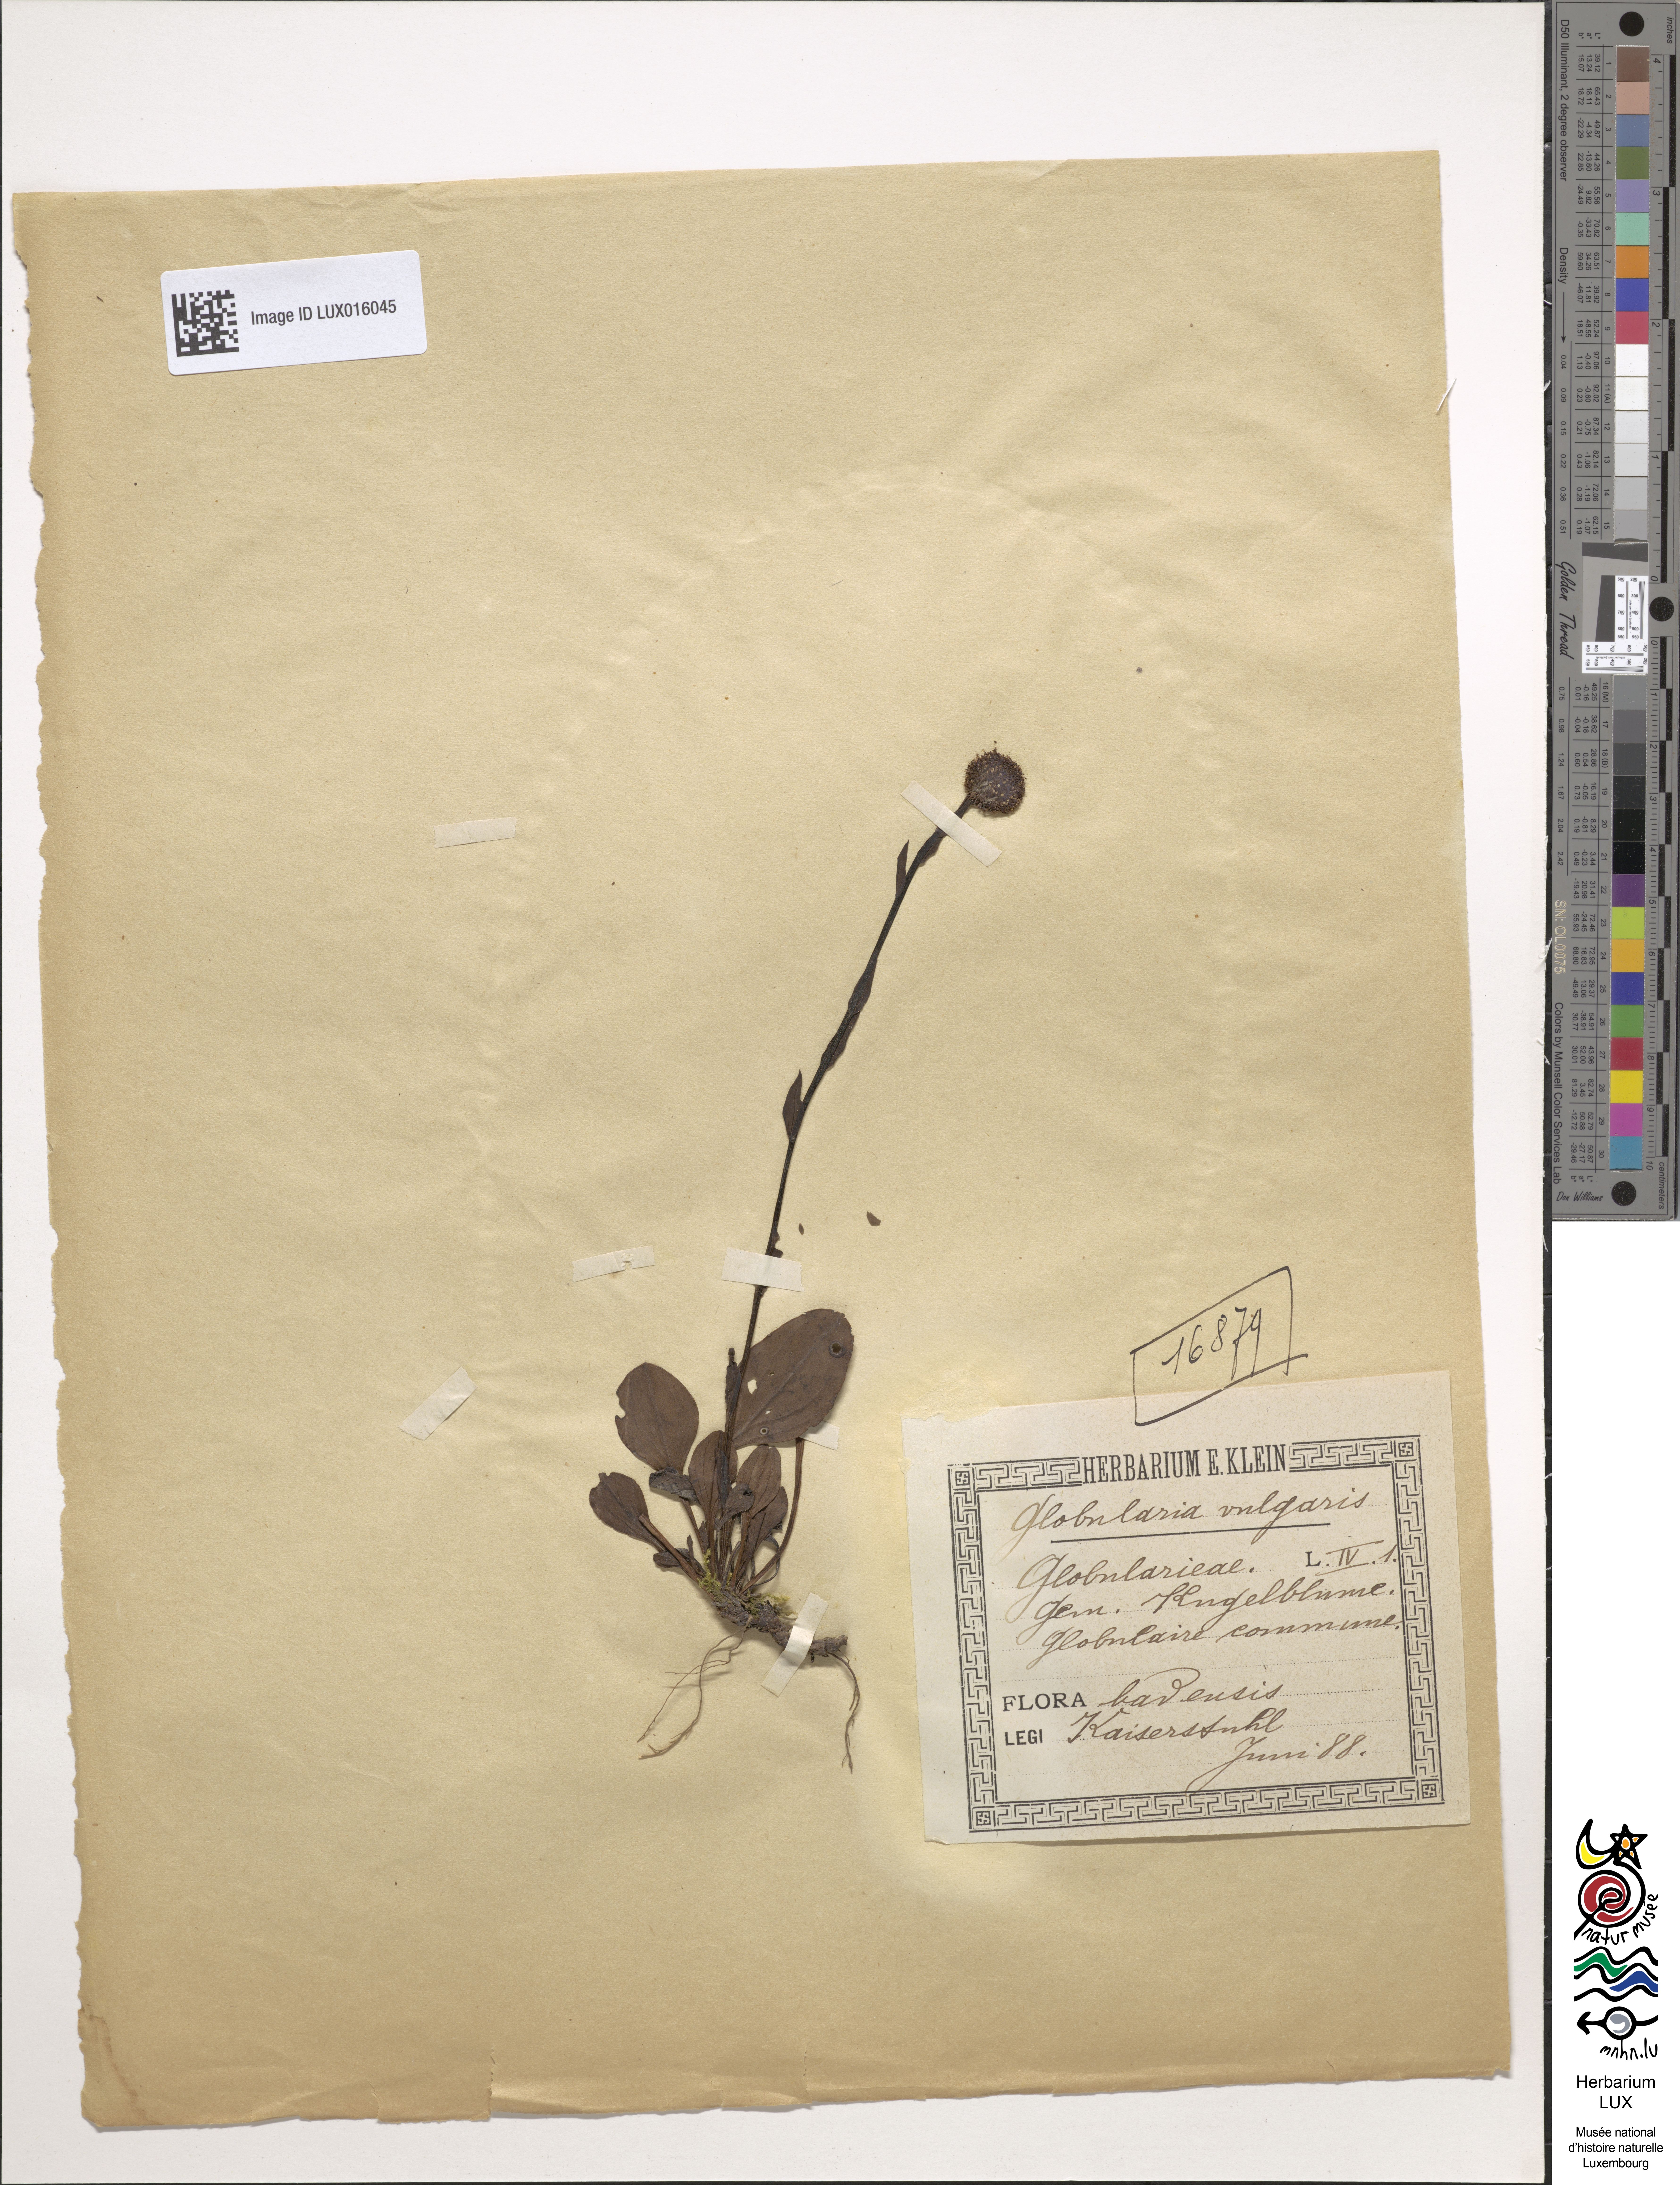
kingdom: Plantae
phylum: Tracheophyta
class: Magnoliopsida
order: Lamiales
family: Plantaginaceae
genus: Globularia
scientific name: Globularia bisnagarica
